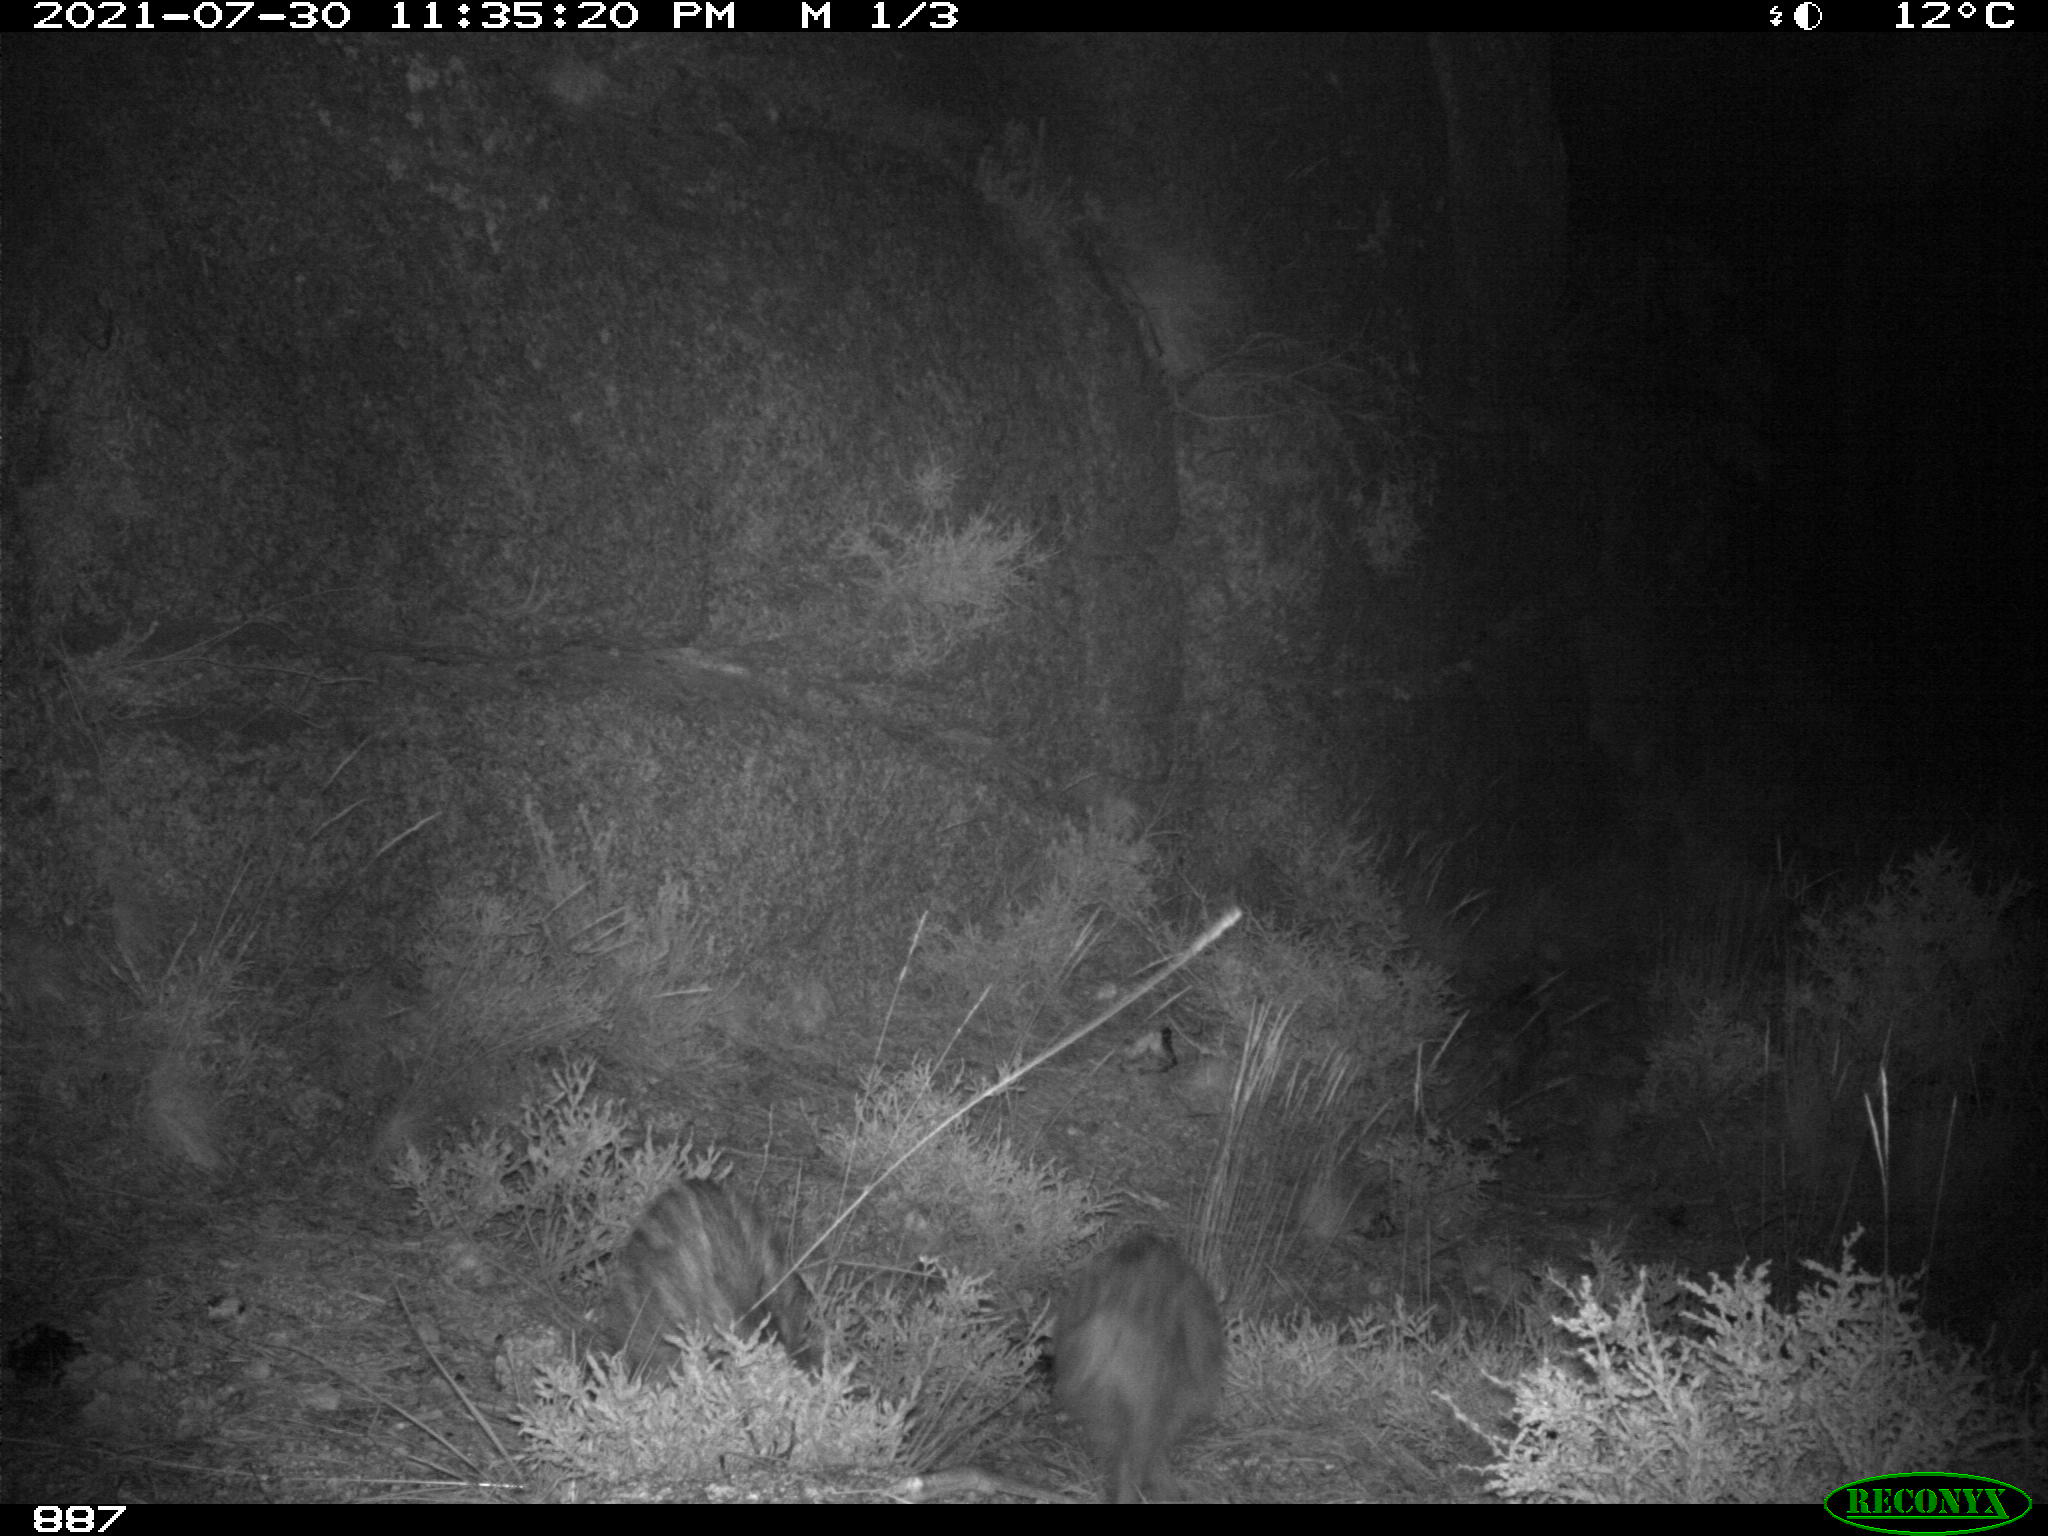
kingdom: Animalia
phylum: Chordata
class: Mammalia
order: Artiodactyla
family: Suidae
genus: Sus
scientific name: Sus scrofa
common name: Wild boar
